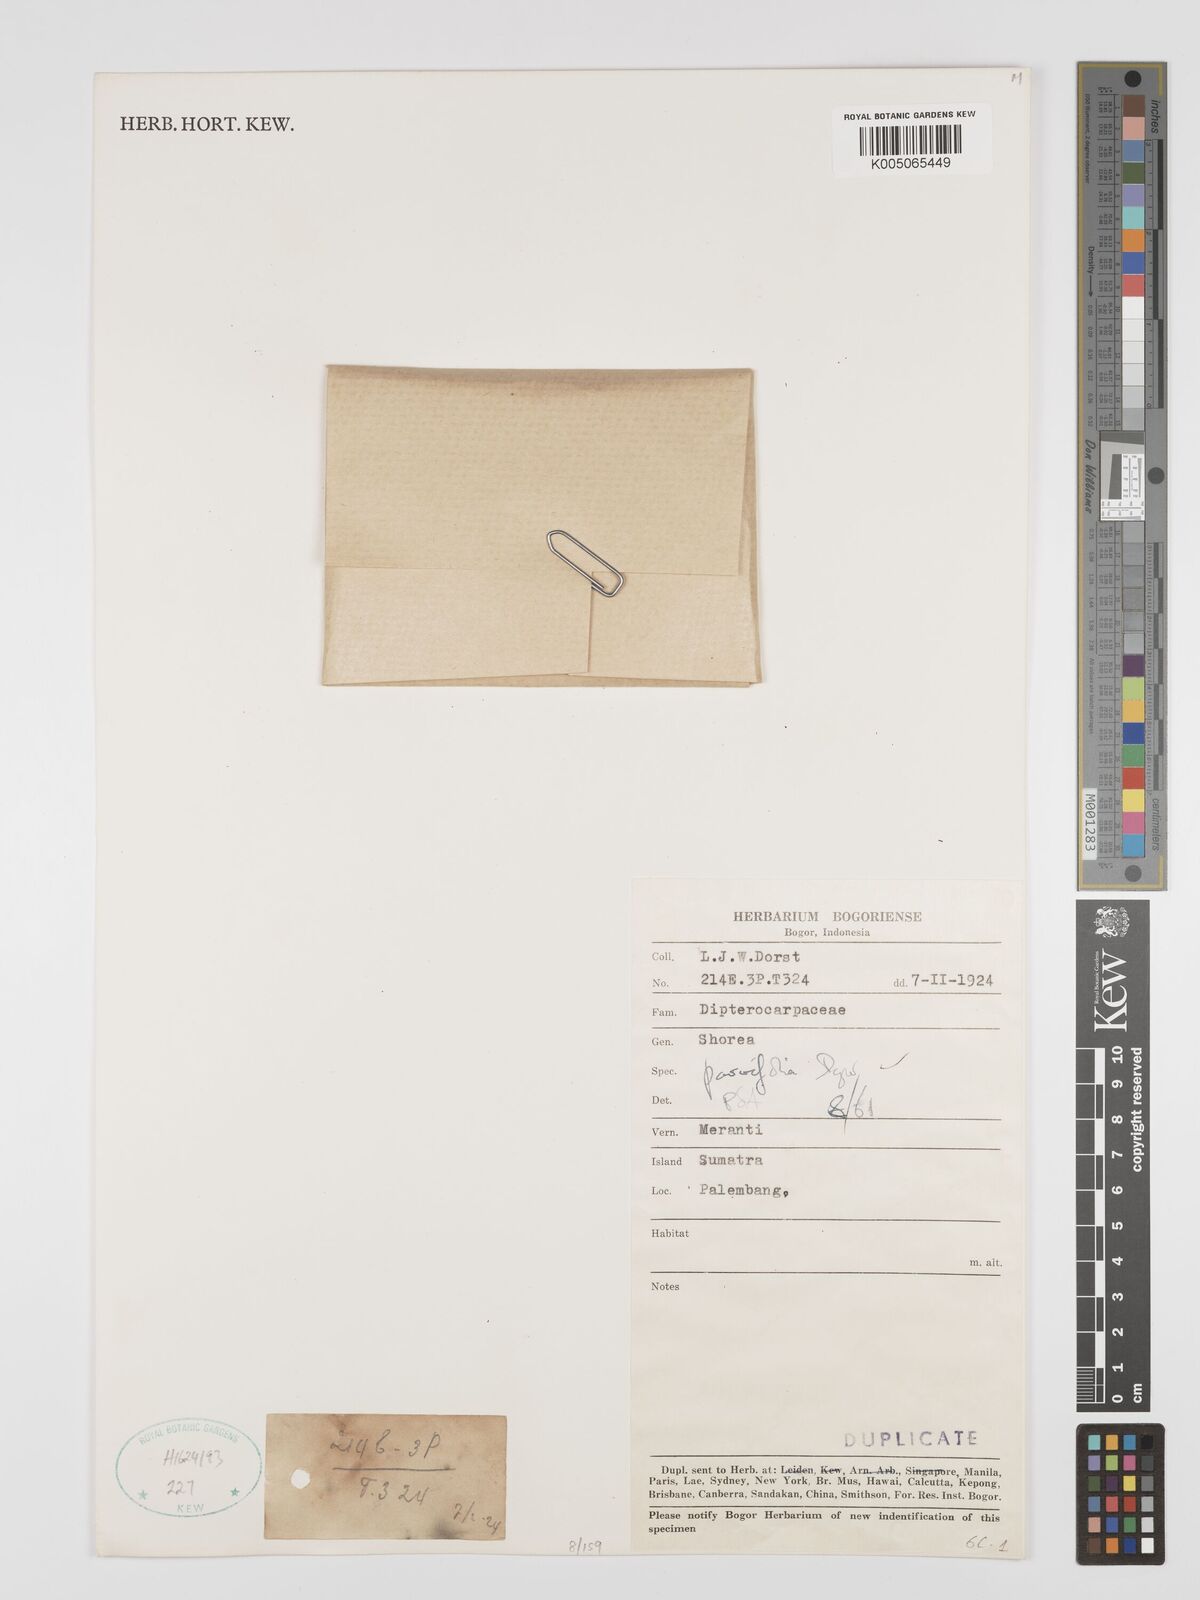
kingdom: Plantae
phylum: Tracheophyta
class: Magnoliopsida
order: Malvales
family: Dipterocarpaceae
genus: Shorea
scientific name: Shorea parvifolia
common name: Light red meranti
